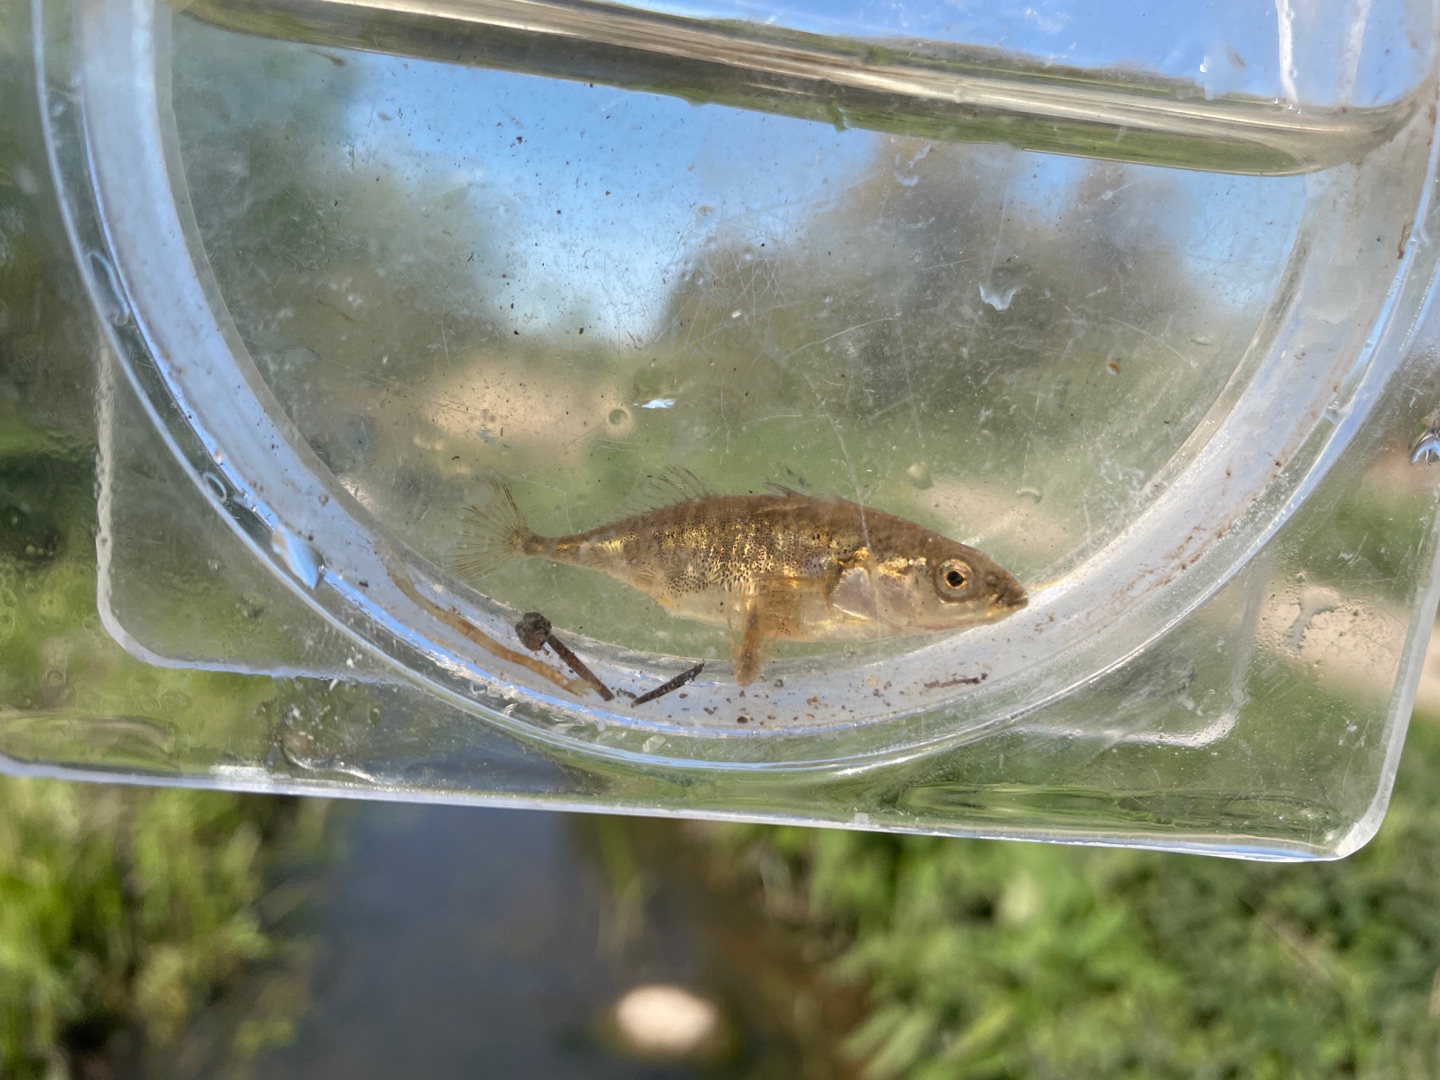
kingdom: Animalia
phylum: Chordata
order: Gasterosteiformes
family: Gasterosteidae
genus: Gasterosteus
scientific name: Gasterosteus aculeatus
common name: Trepigget hundestejle
